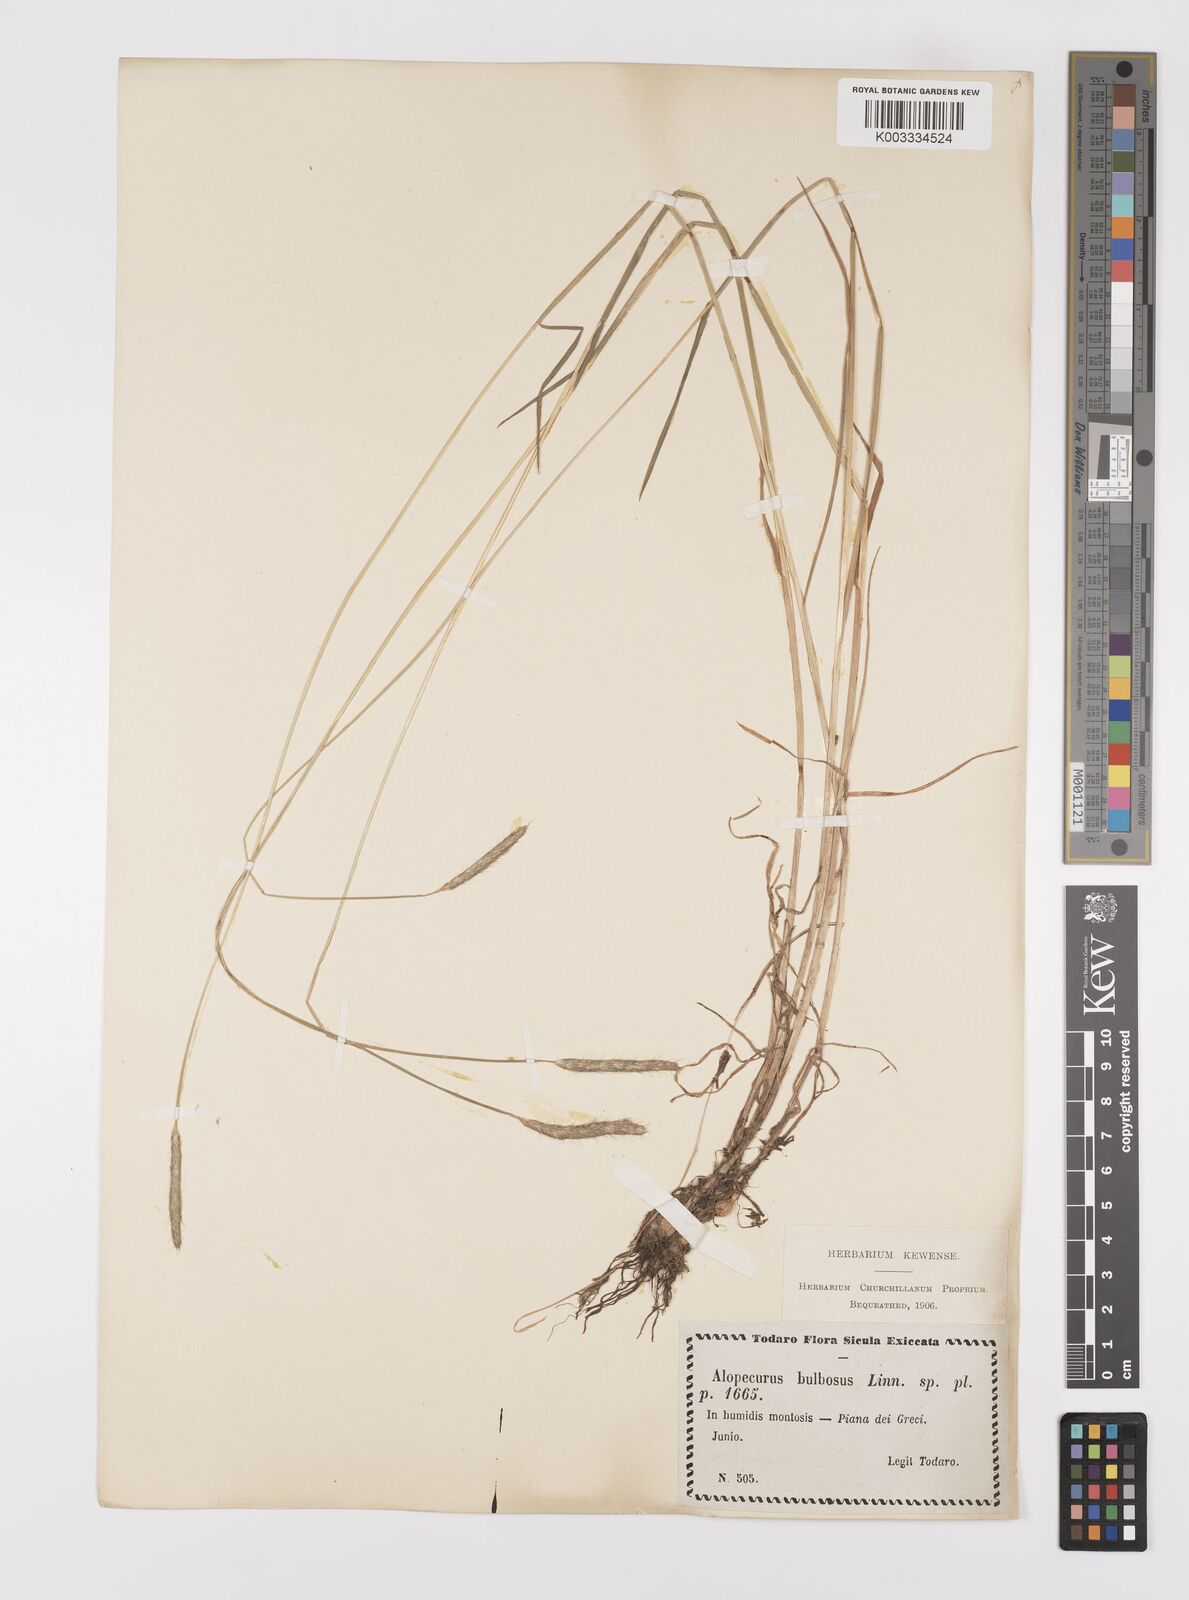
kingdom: Plantae
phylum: Tracheophyta
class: Liliopsida
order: Poales
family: Poaceae
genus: Alopecurus
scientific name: Alopecurus bulbosus
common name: Bulbous foxtail
